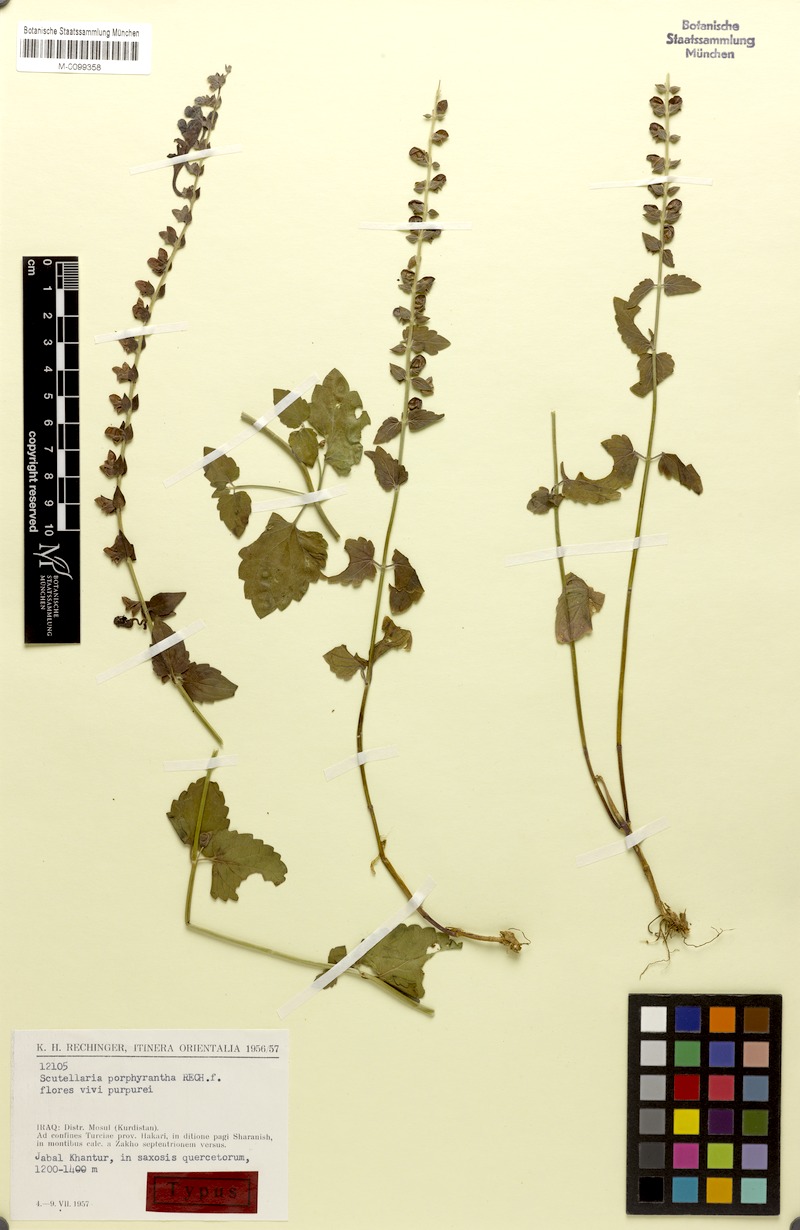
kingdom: Plantae
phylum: Tracheophyta
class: Magnoliopsida
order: Lamiales
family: Lamiaceae
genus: Scutellaria
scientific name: Scutellaria porphyrantha
